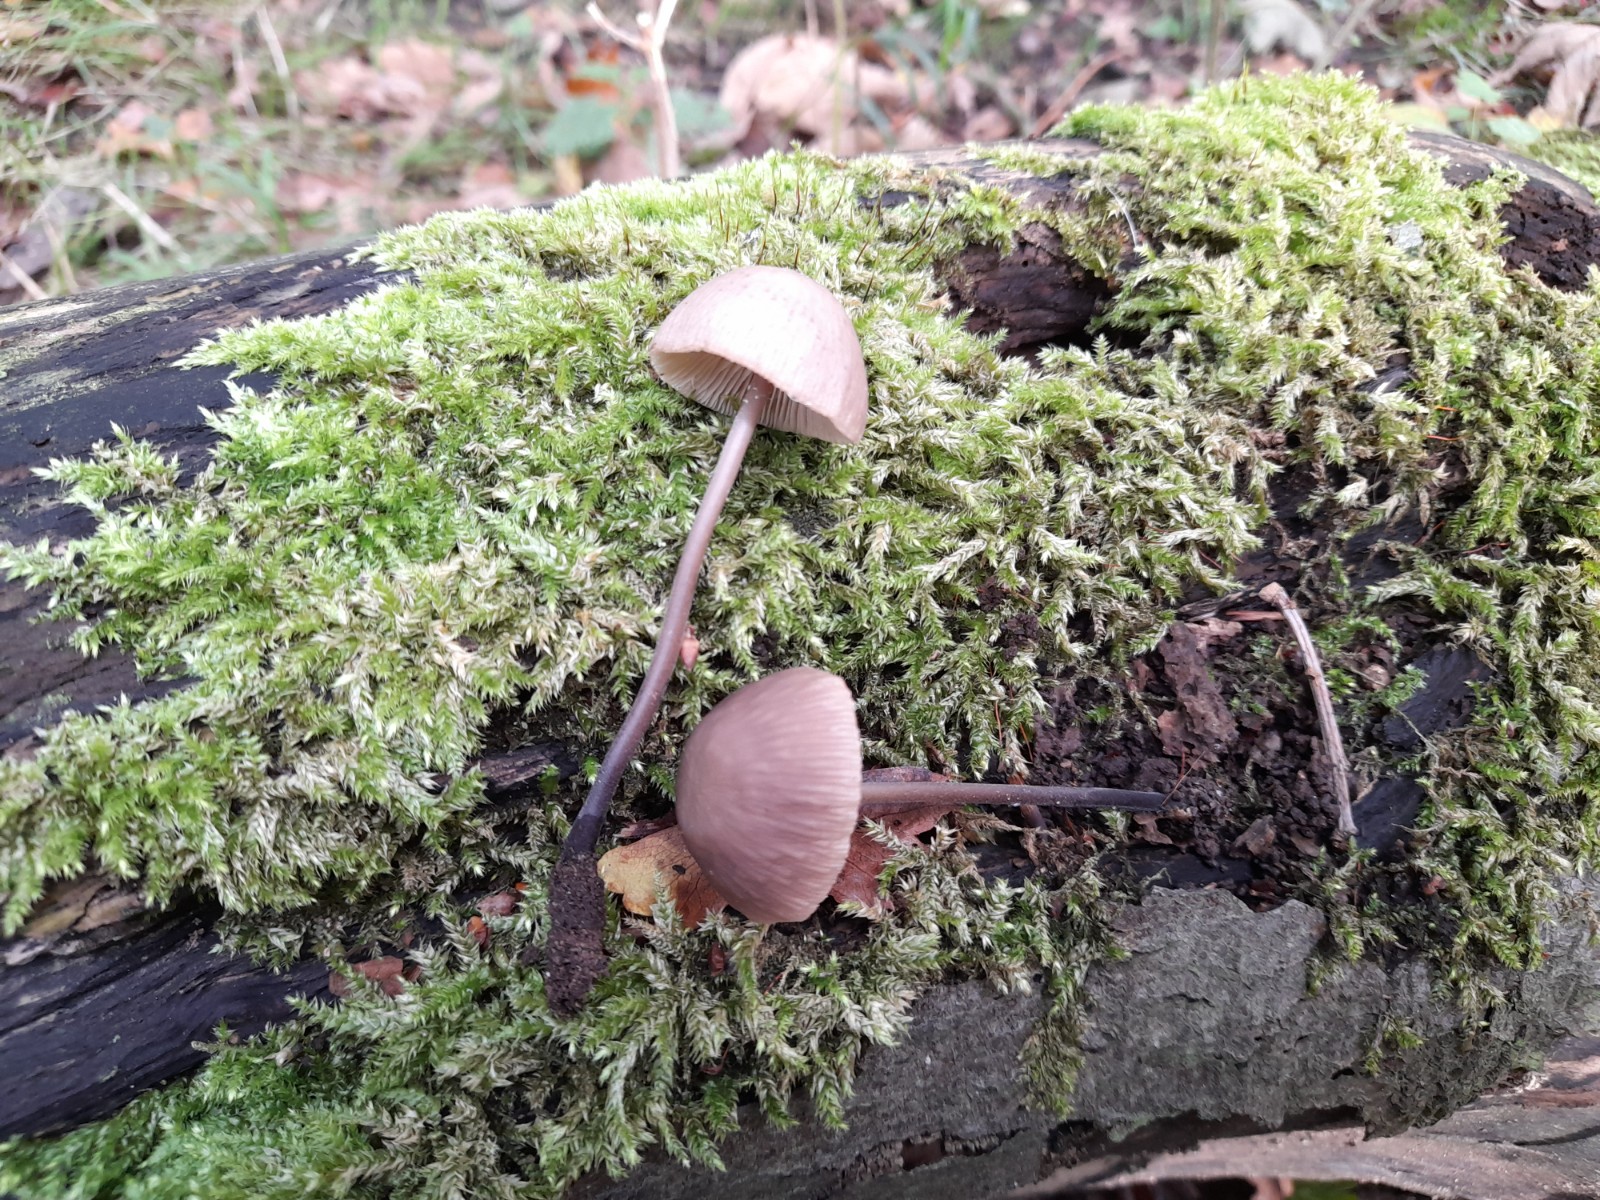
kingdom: Fungi
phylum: Basidiomycota
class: Agaricomycetes
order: Agaricales
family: Omphalotaceae
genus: Mycetinis
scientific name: Mycetinis alliaceus
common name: stor løghat
